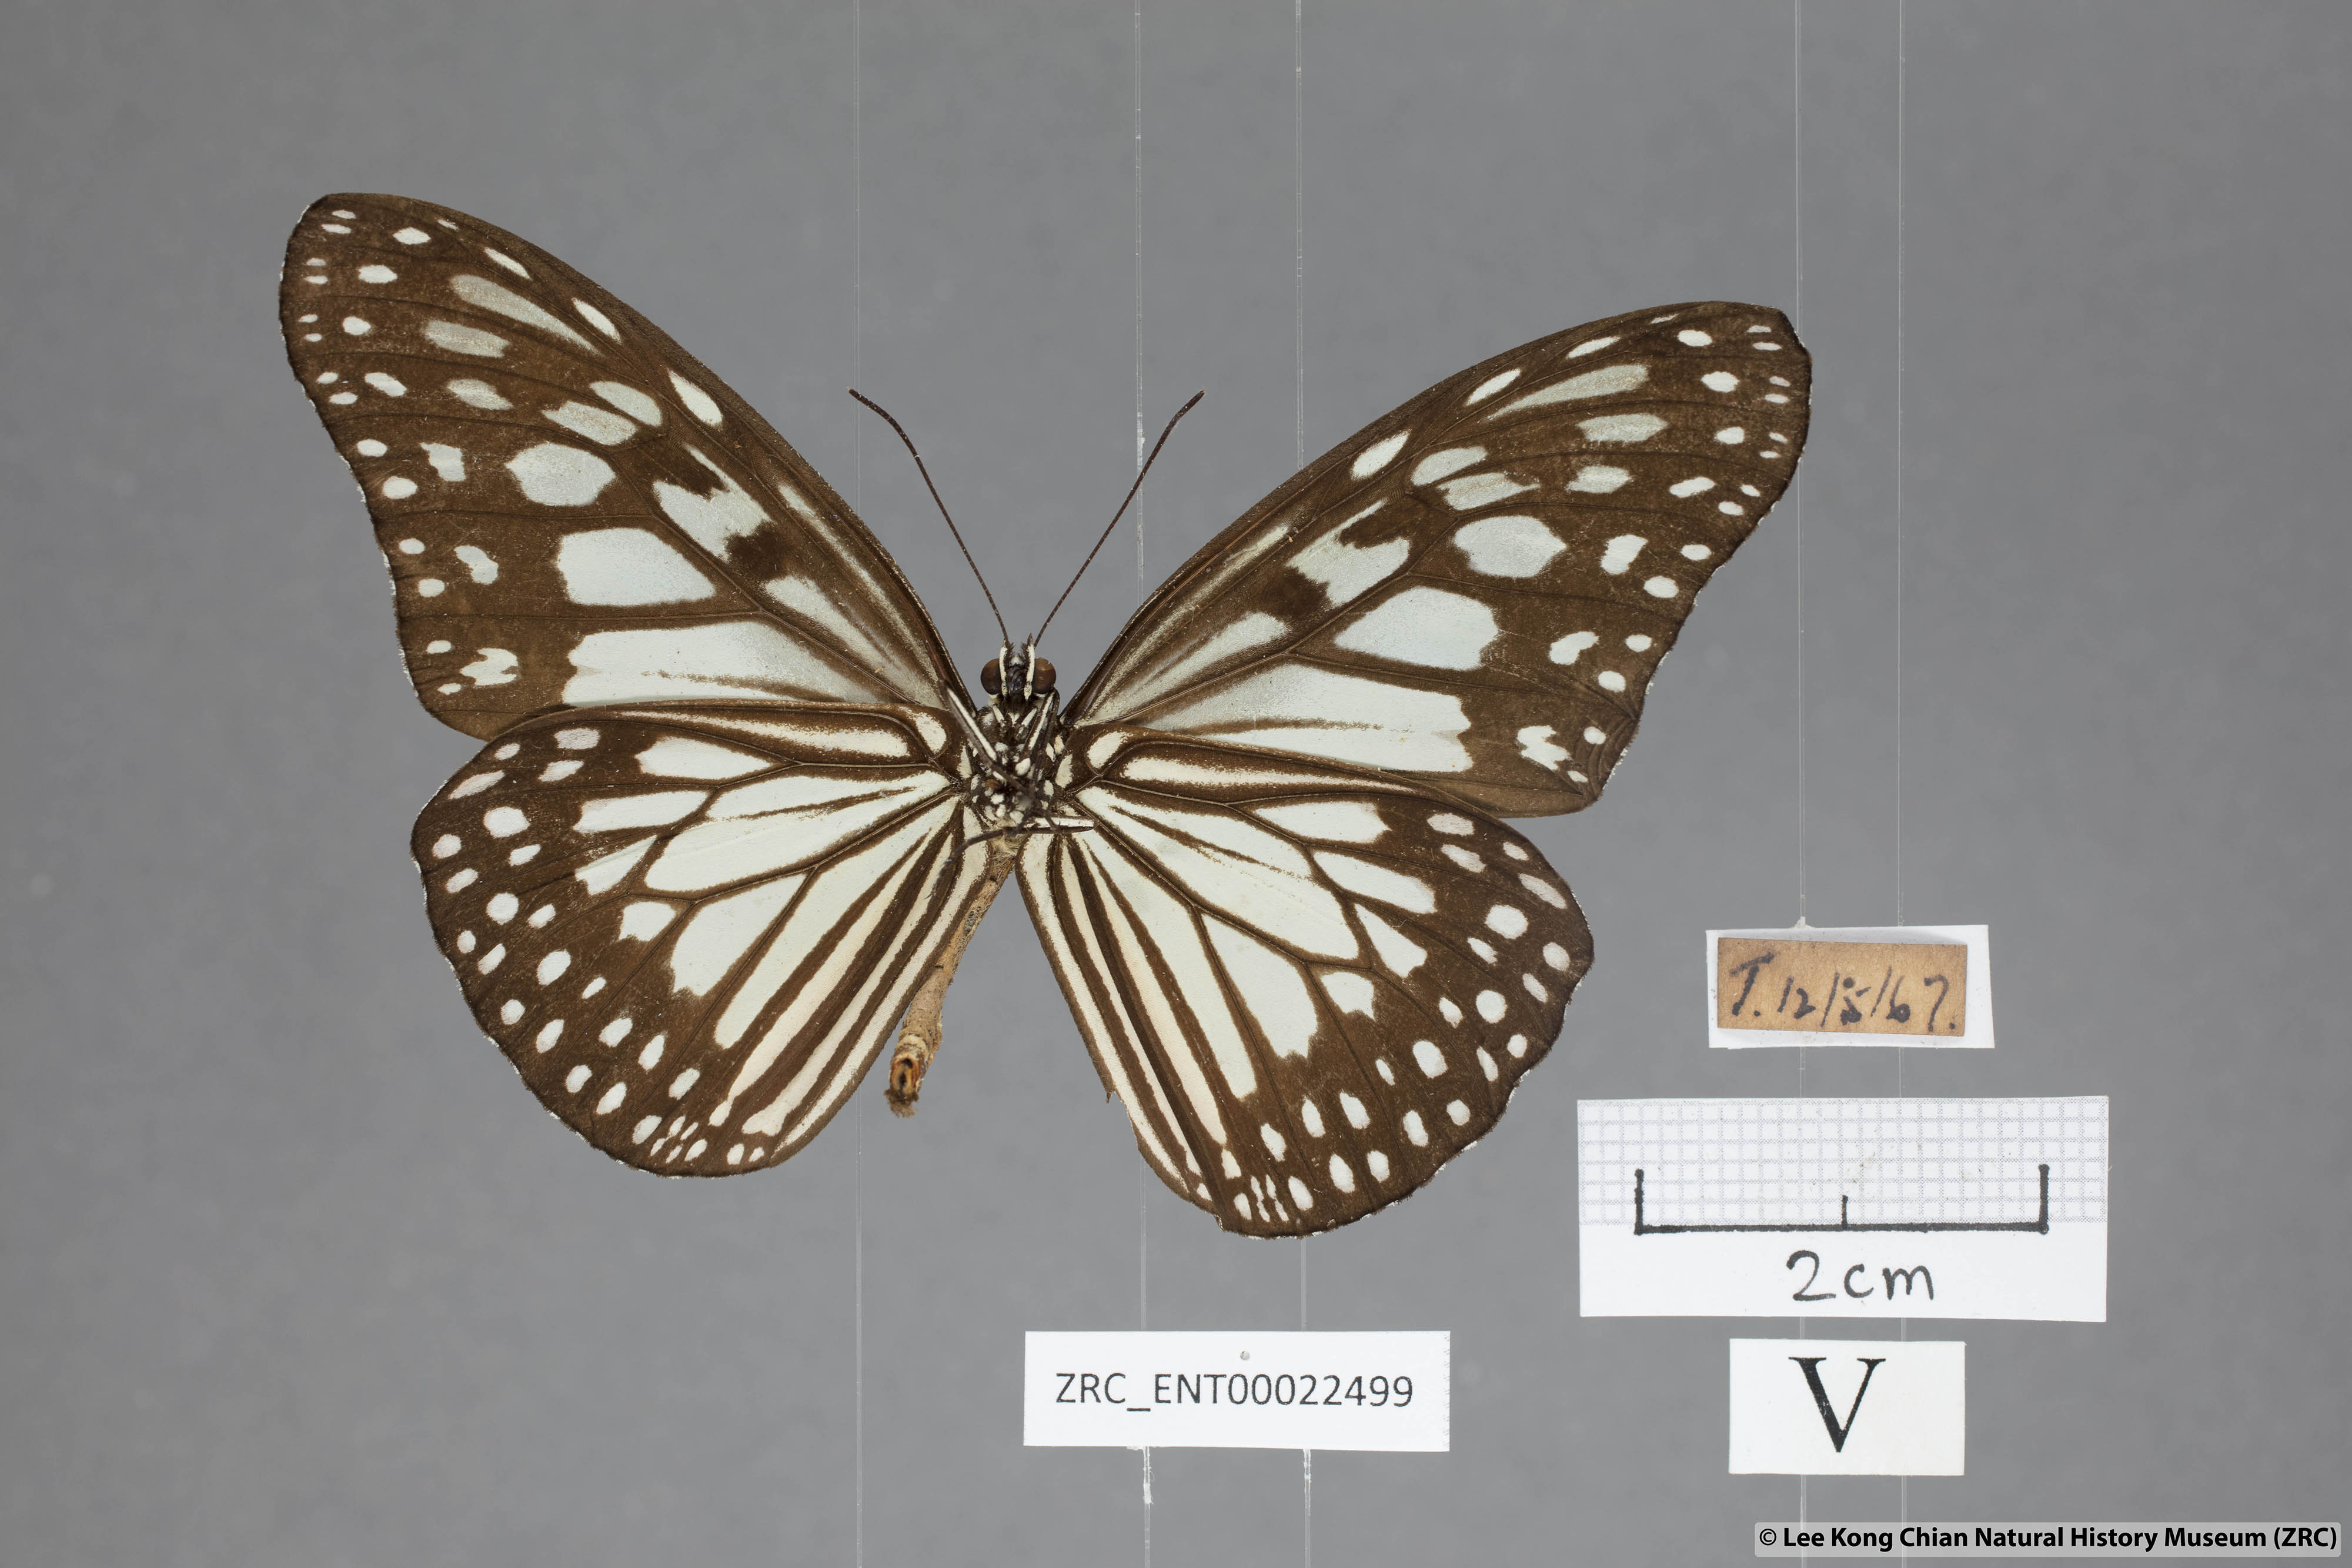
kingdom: Animalia
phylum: Arthropoda
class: Insecta
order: Lepidoptera
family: Nymphalidae
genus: Ideopsis
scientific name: Ideopsis juventa
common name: Grey glassy tiger
